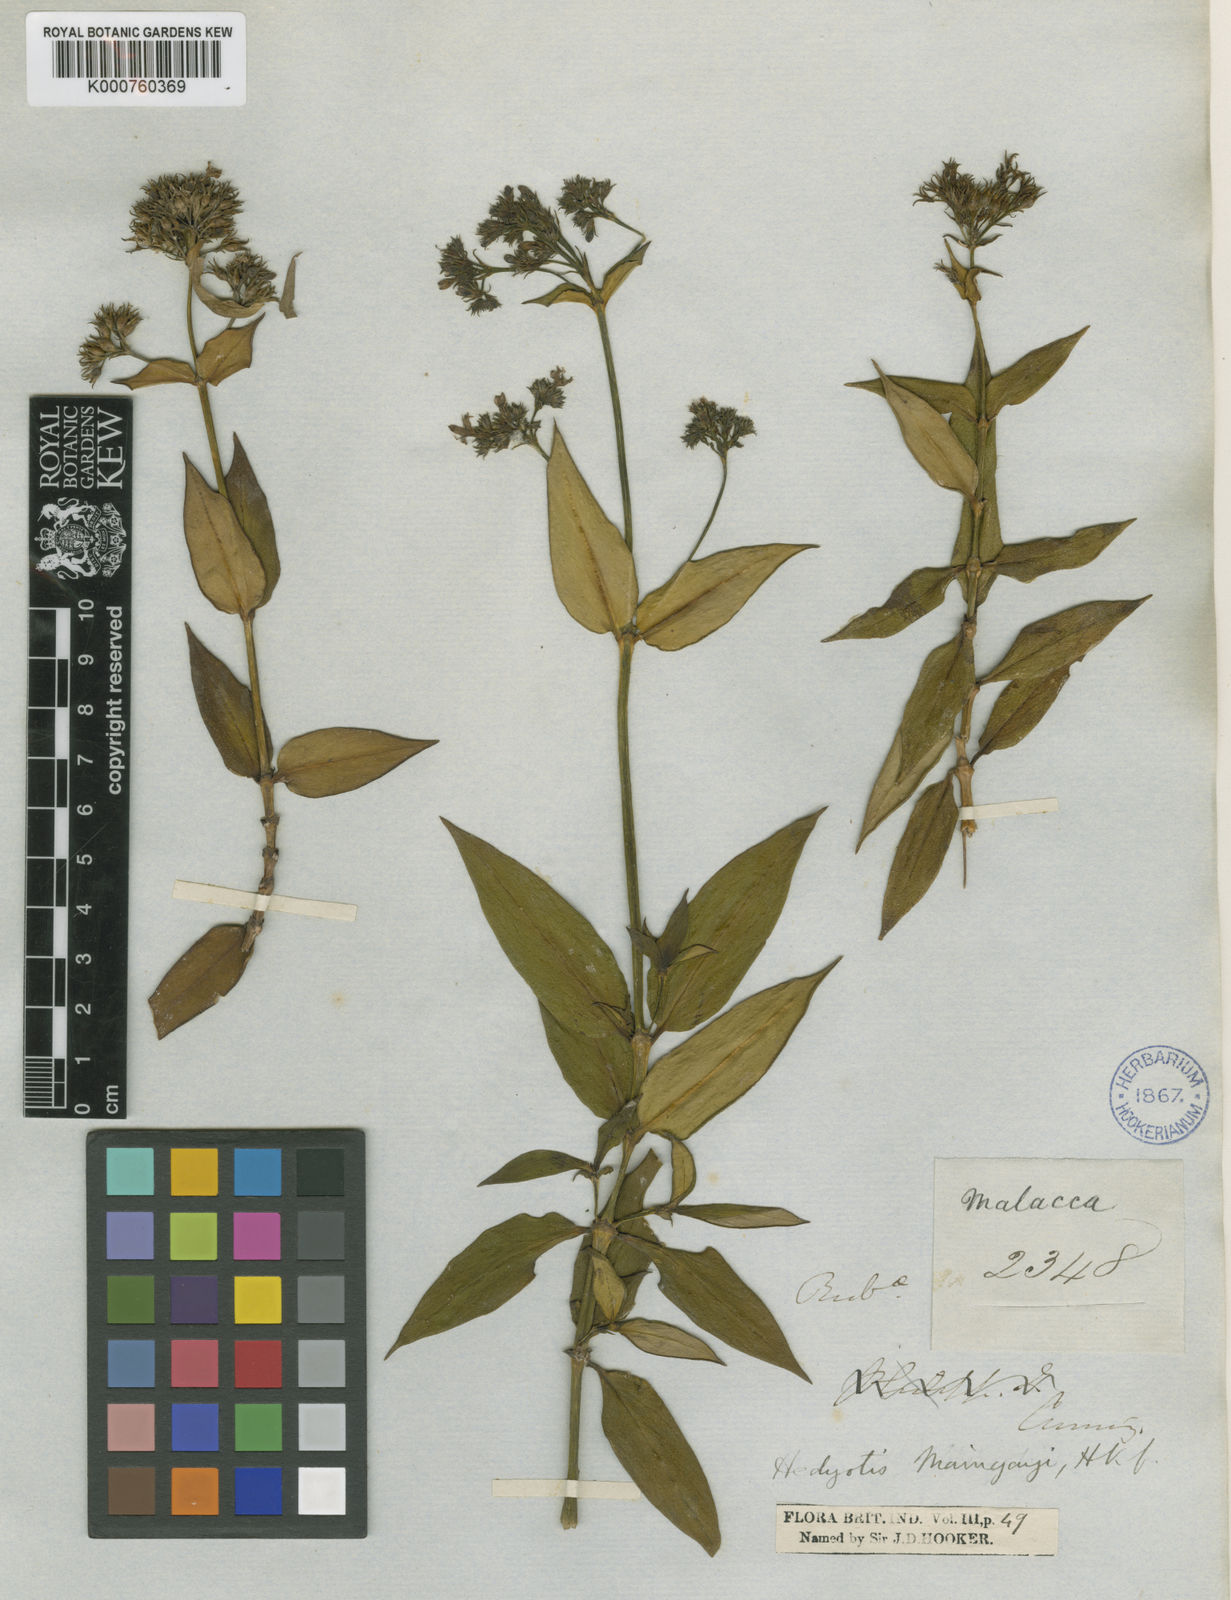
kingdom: Plantae
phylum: Tracheophyta
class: Magnoliopsida
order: Gentianales
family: Rubiaceae
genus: Hedyotis
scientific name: Hedyotis maingayi
